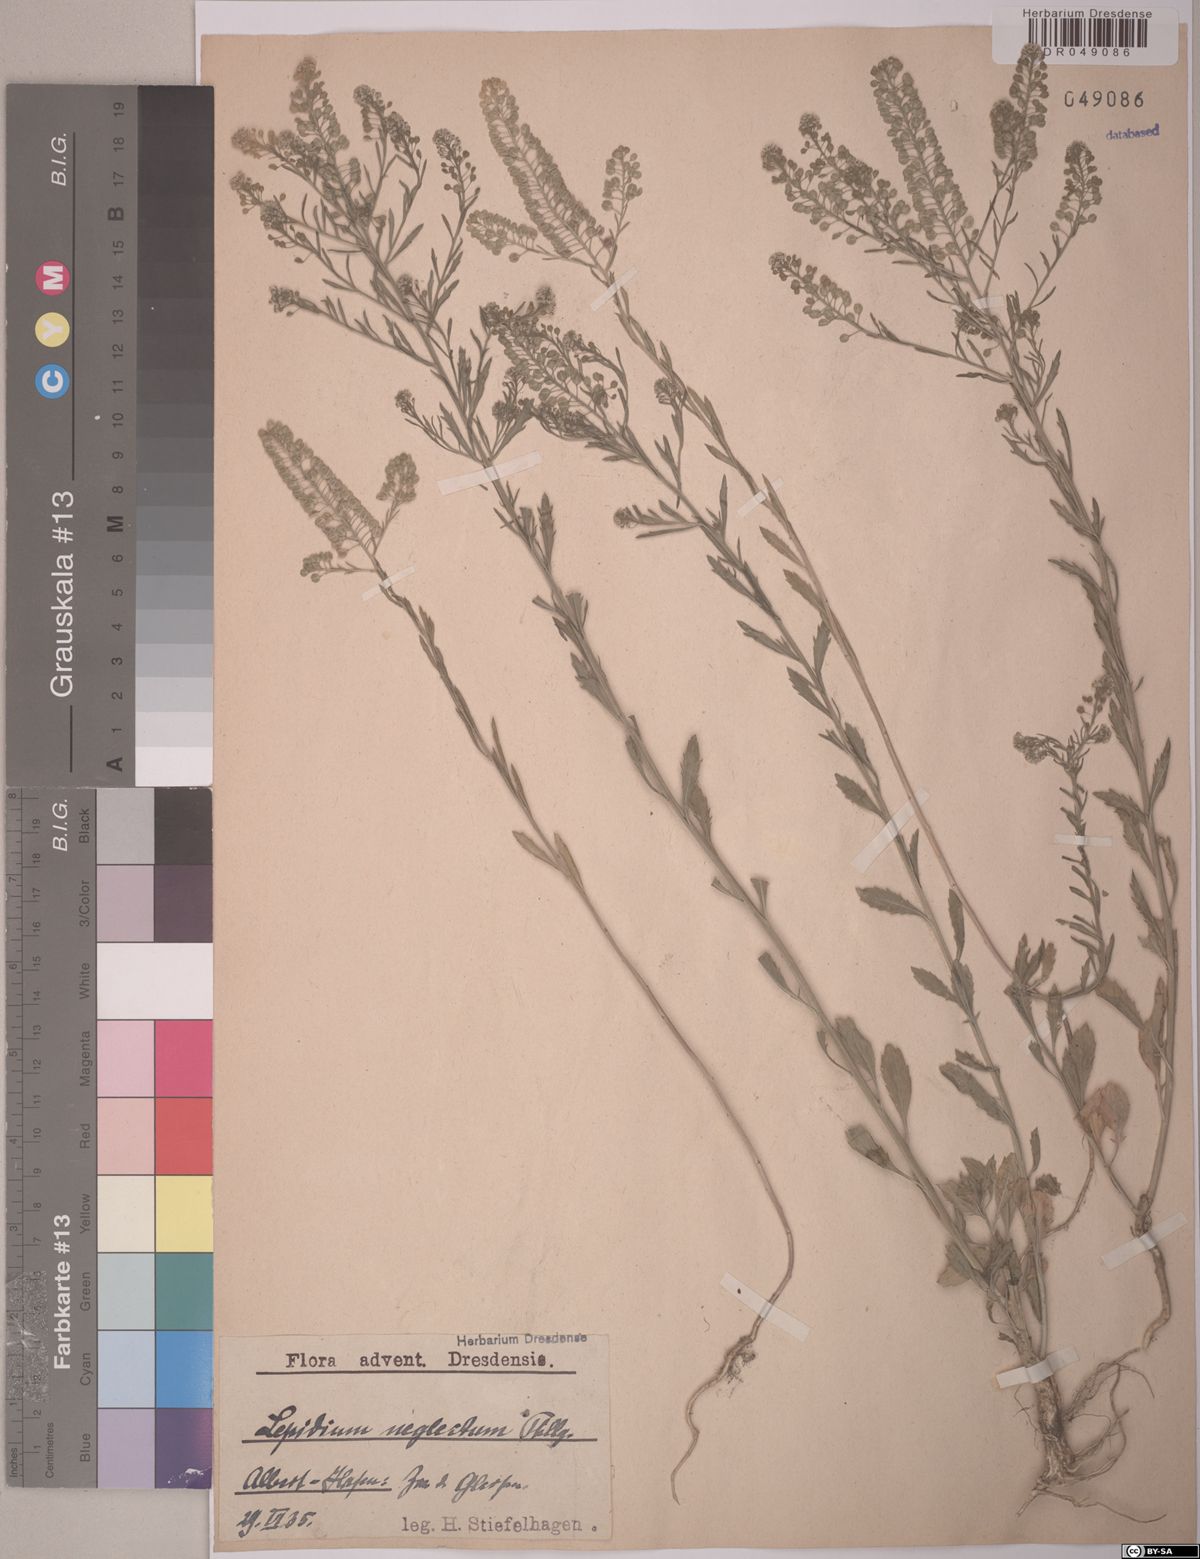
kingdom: Plantae
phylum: Tracheophyta
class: Magnoliopsida
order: Brassicales
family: Brassicaceae
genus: Lepidium
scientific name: Lepidium densiflorum
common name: Miner's pepperwort
